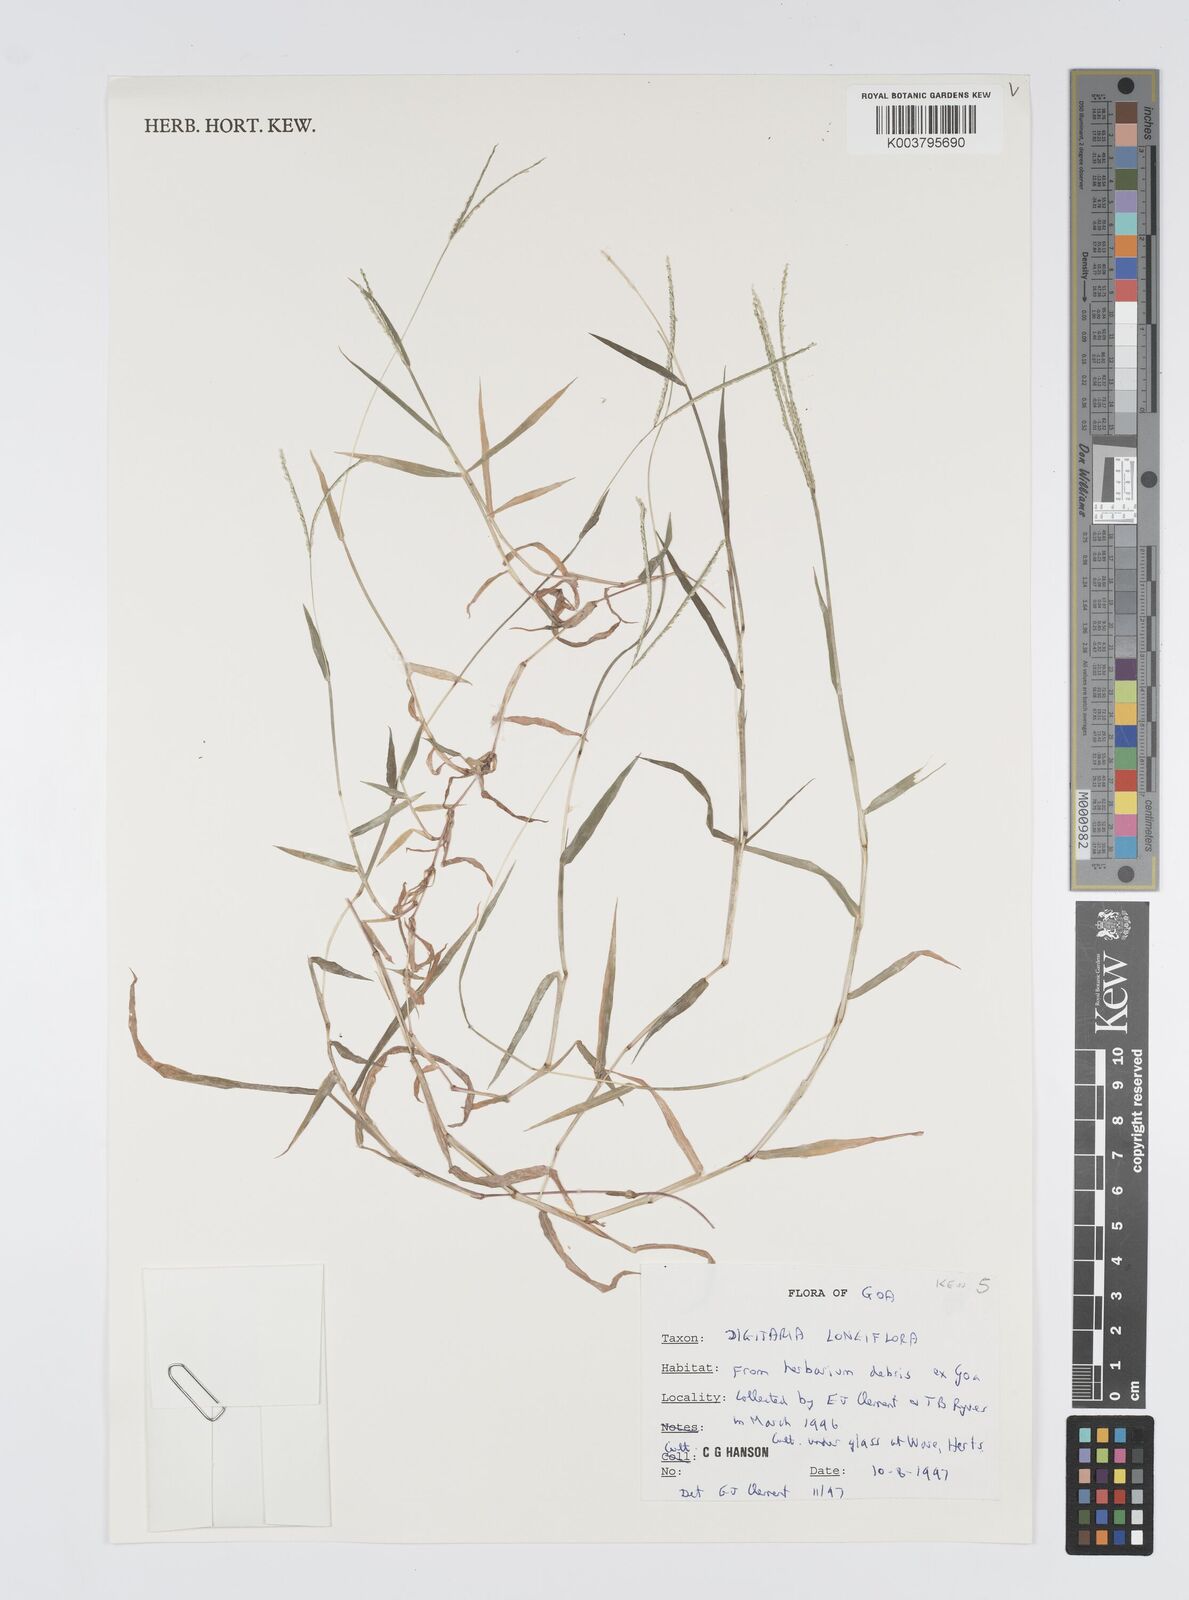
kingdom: Plantae
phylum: Tracheophyta
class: Liliopsida
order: Poales
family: Poaceae
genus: Digitaria
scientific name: Digitaria longiflora
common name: Wire crabgrass
